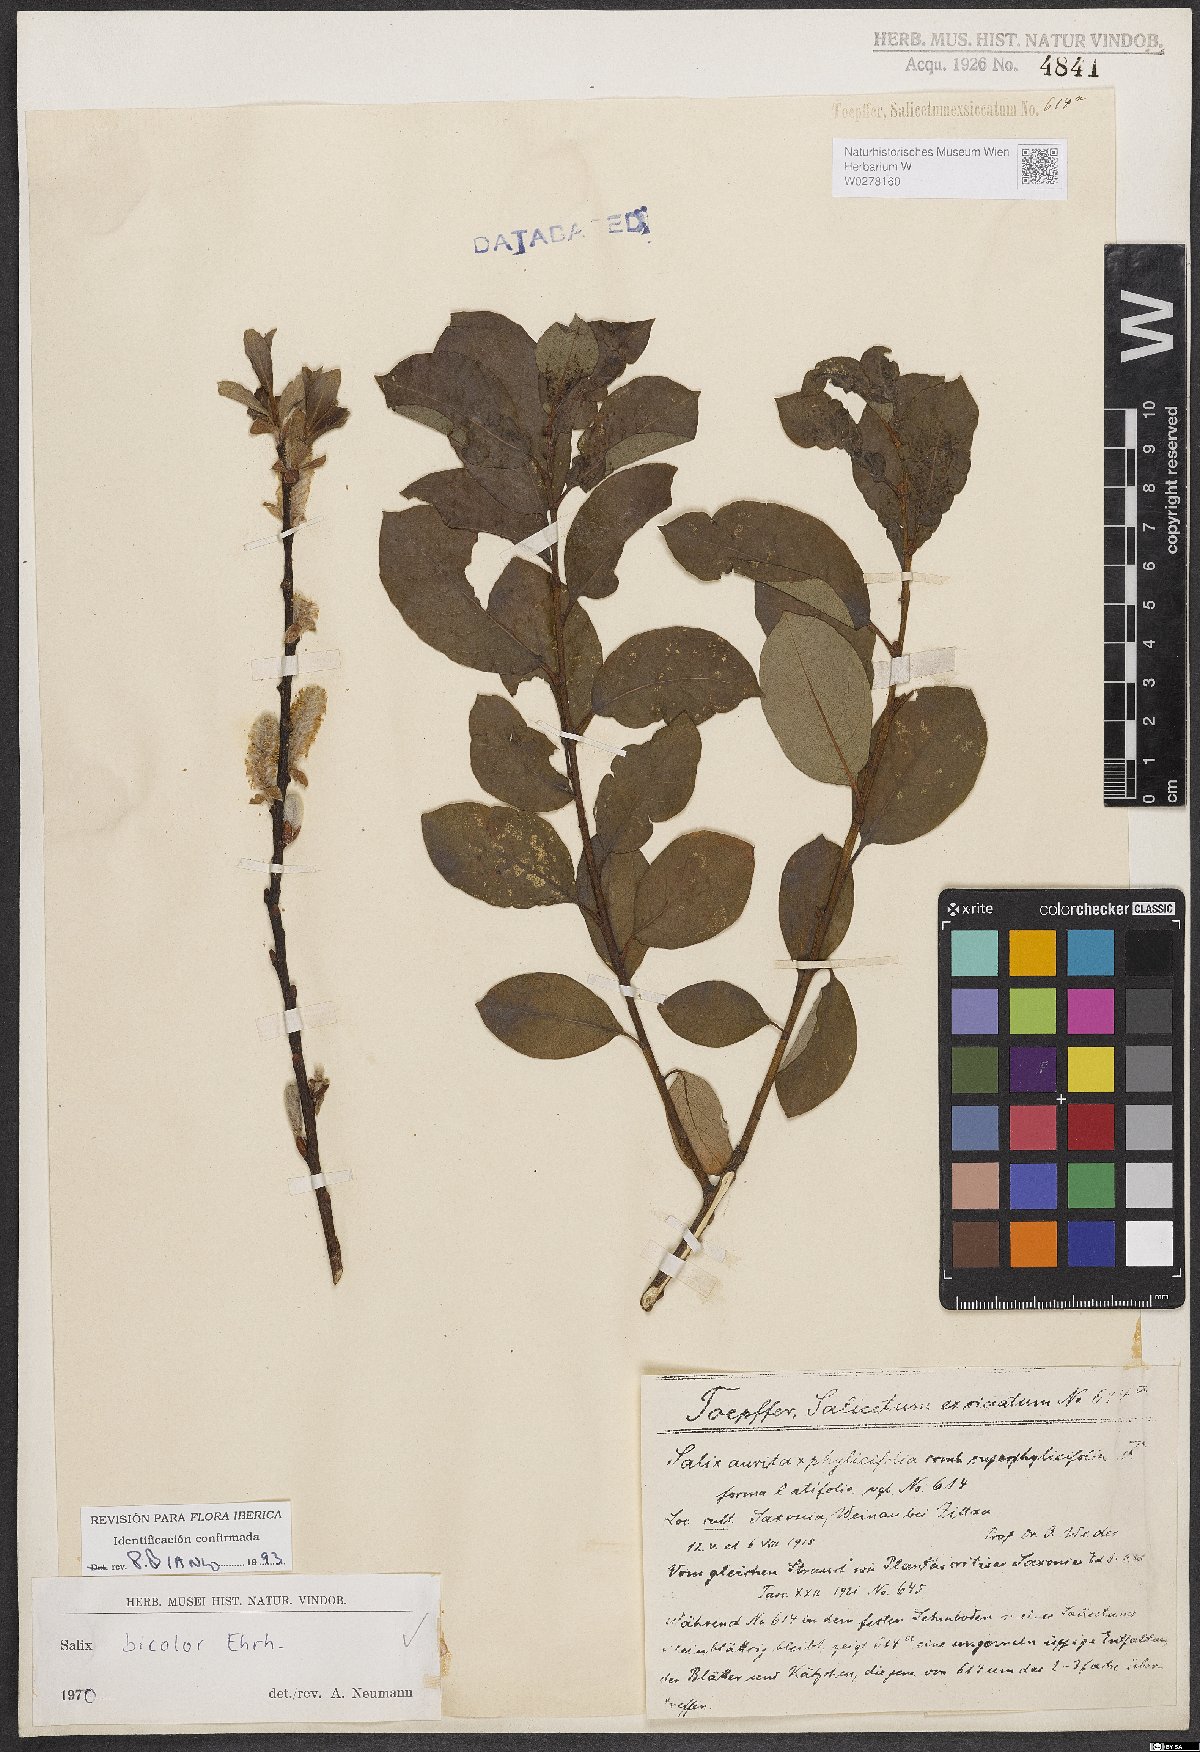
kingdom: Plantae
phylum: Tracheophyta
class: Magnoliopsida
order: Malpighiales
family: Salicaceae
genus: Salix
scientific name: Salix bicolor
